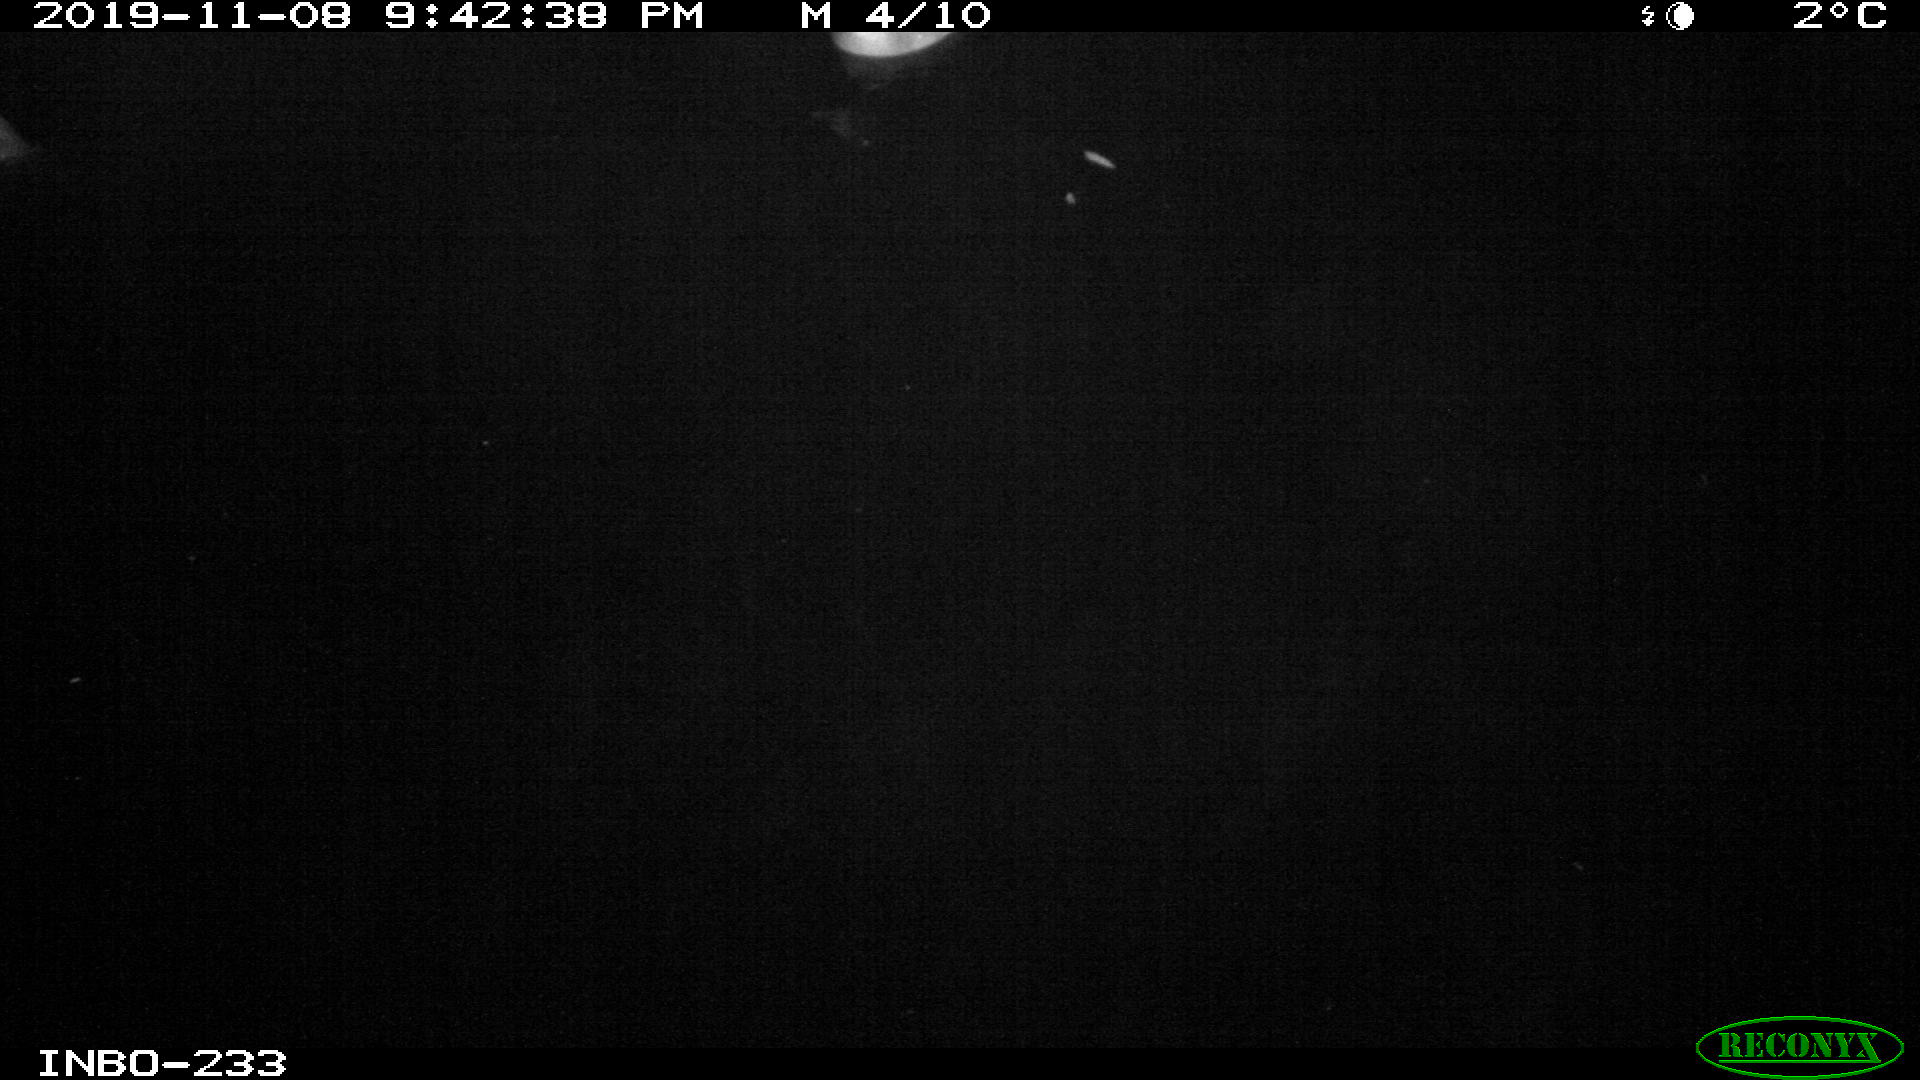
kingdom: Animalia
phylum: Chordata
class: Aves
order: Anseriformes
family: Anatidae
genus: Anas
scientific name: Anas platyrhynchos
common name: Mallard
